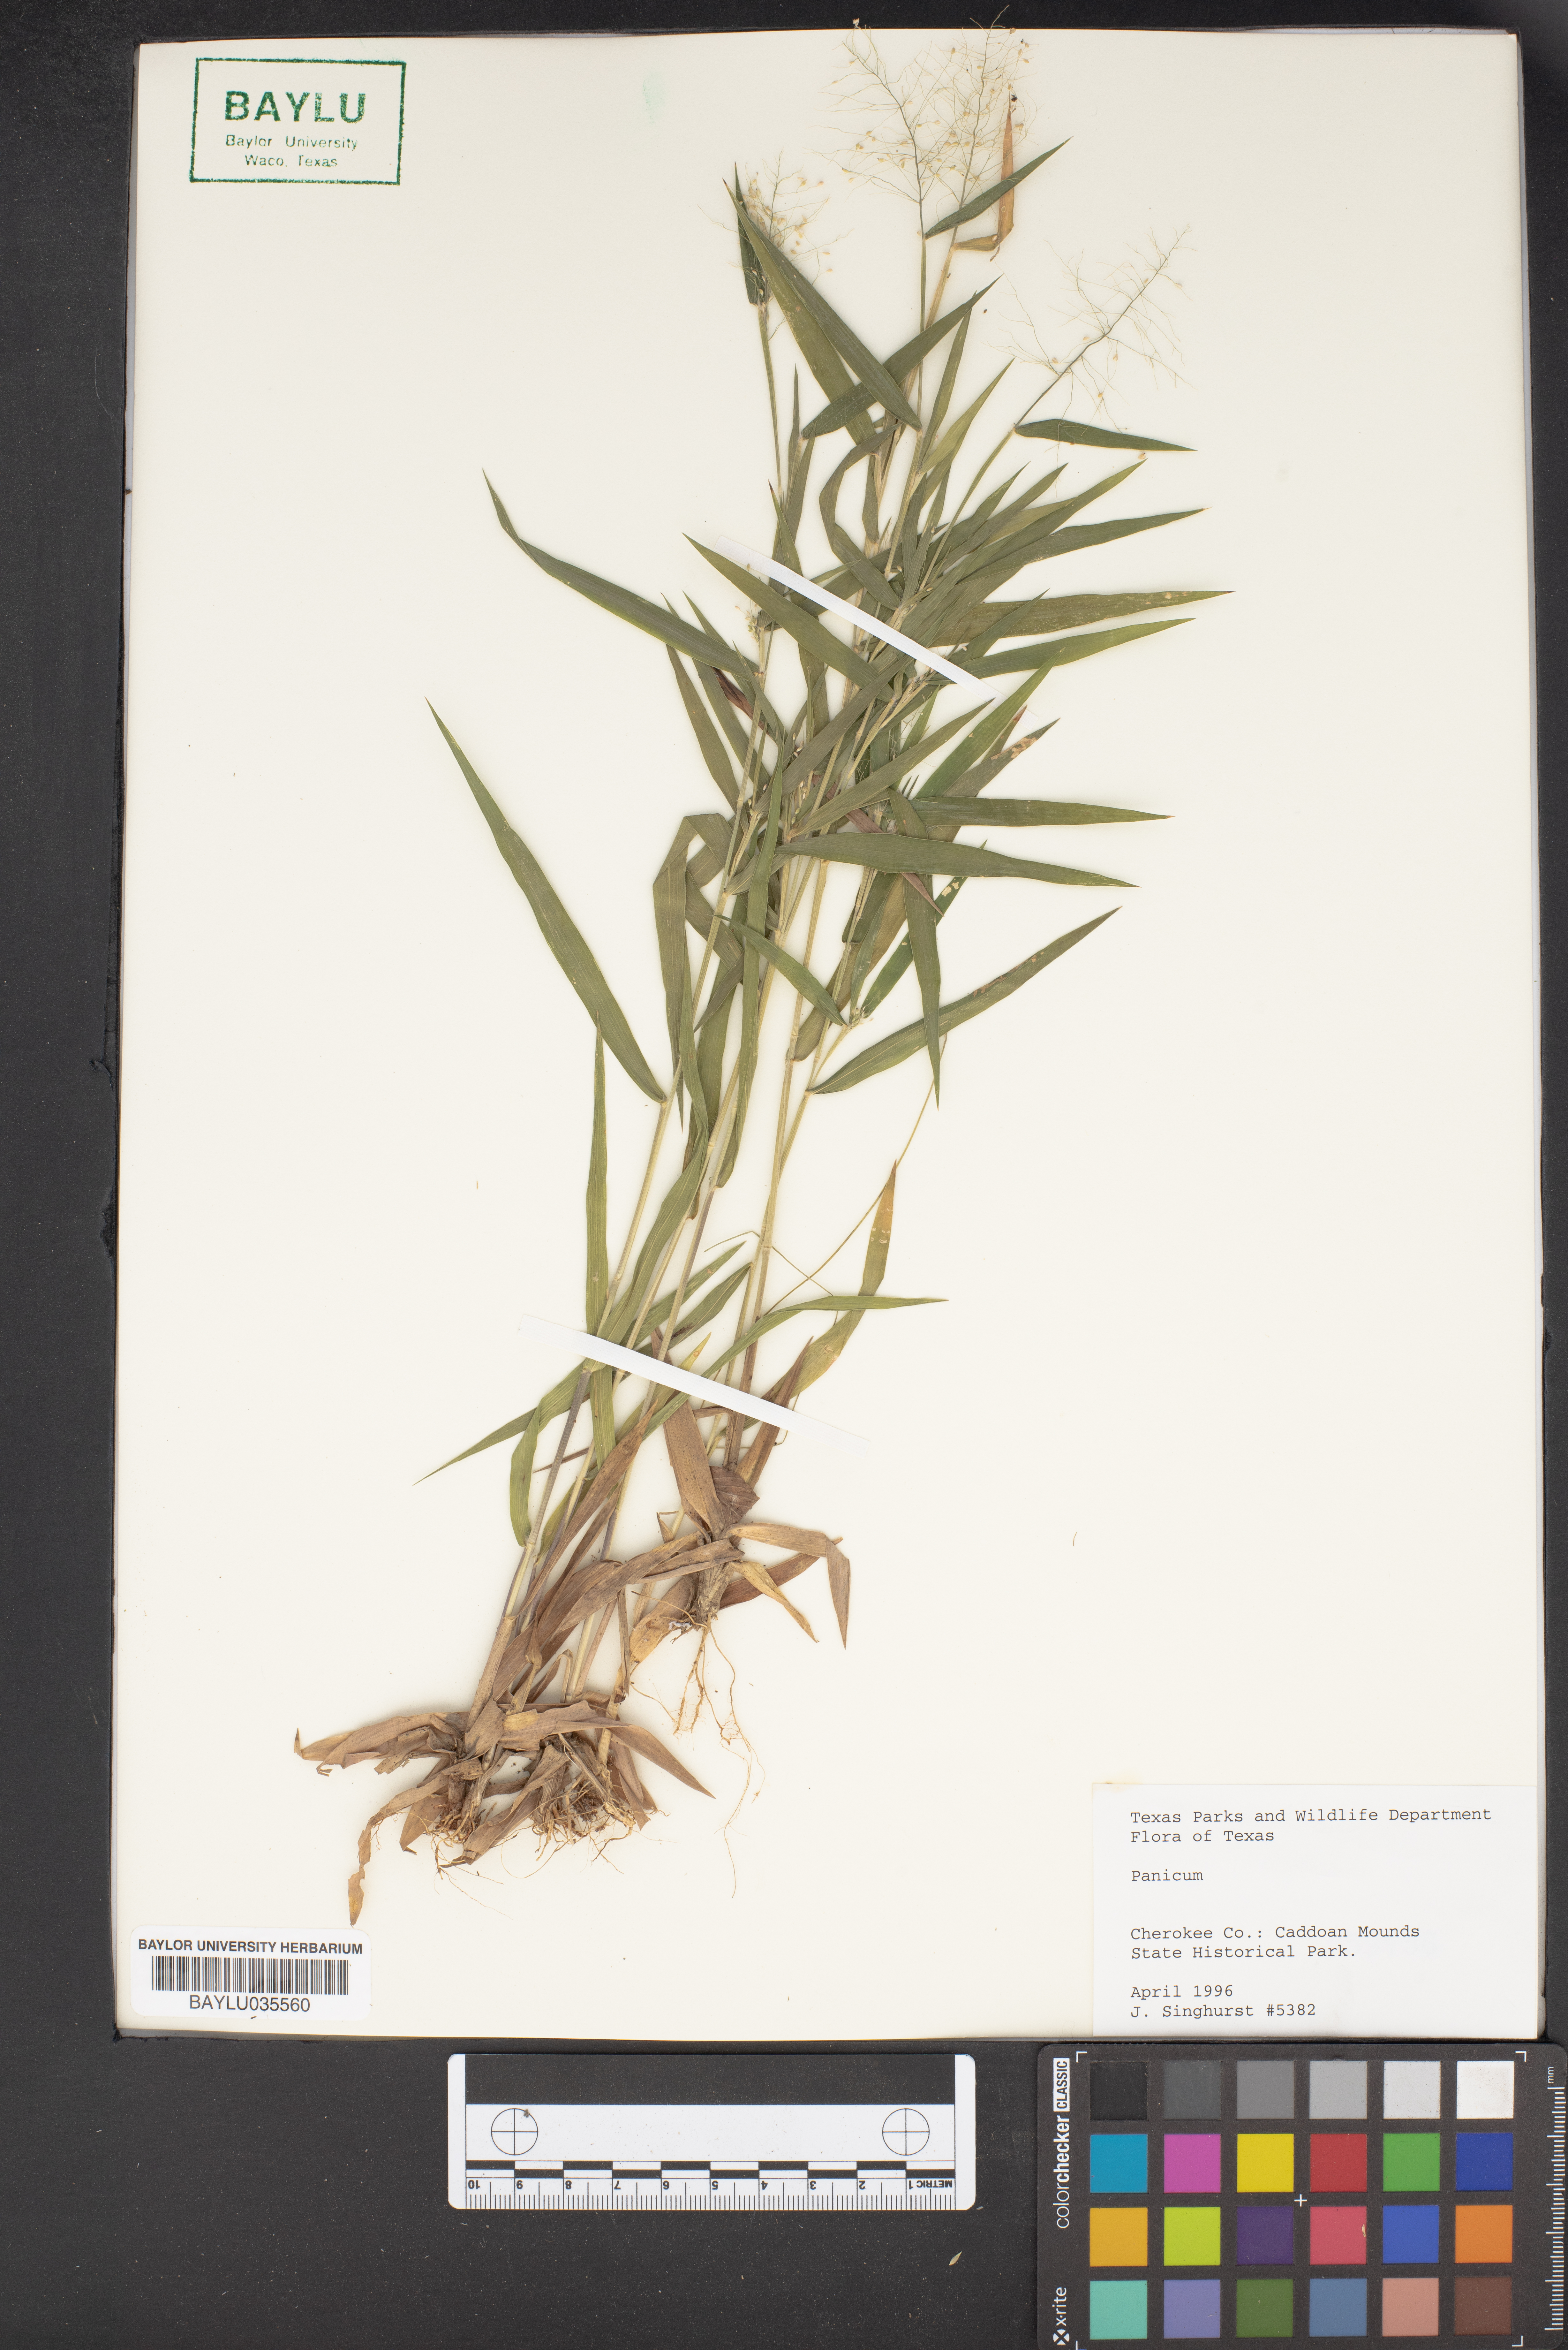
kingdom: Plantae
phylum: Tracheophyta
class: Liliopsida
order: Poales
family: Poaceae
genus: Panicum
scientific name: Panicum
